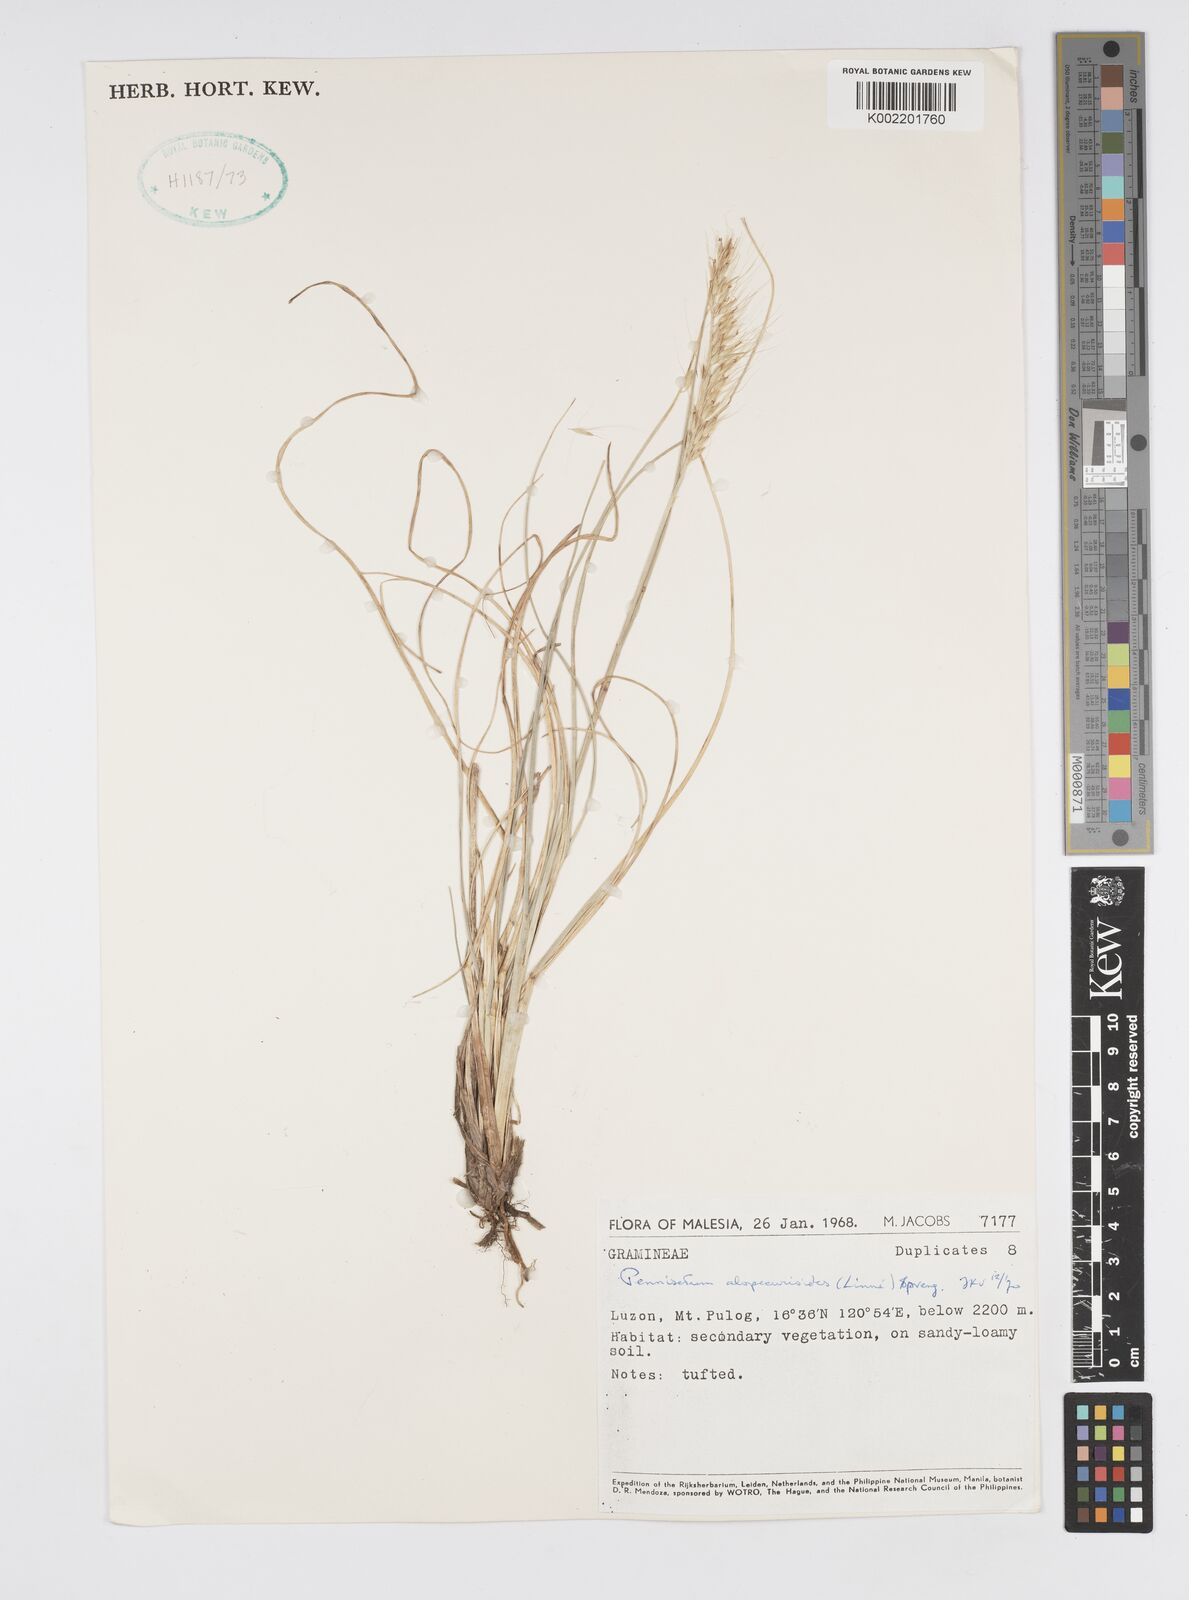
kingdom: Plantae
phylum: Tracheophyta
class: Liliopsida
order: Poales
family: Poaceae
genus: Cenchrus
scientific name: Cenchrus setosus
